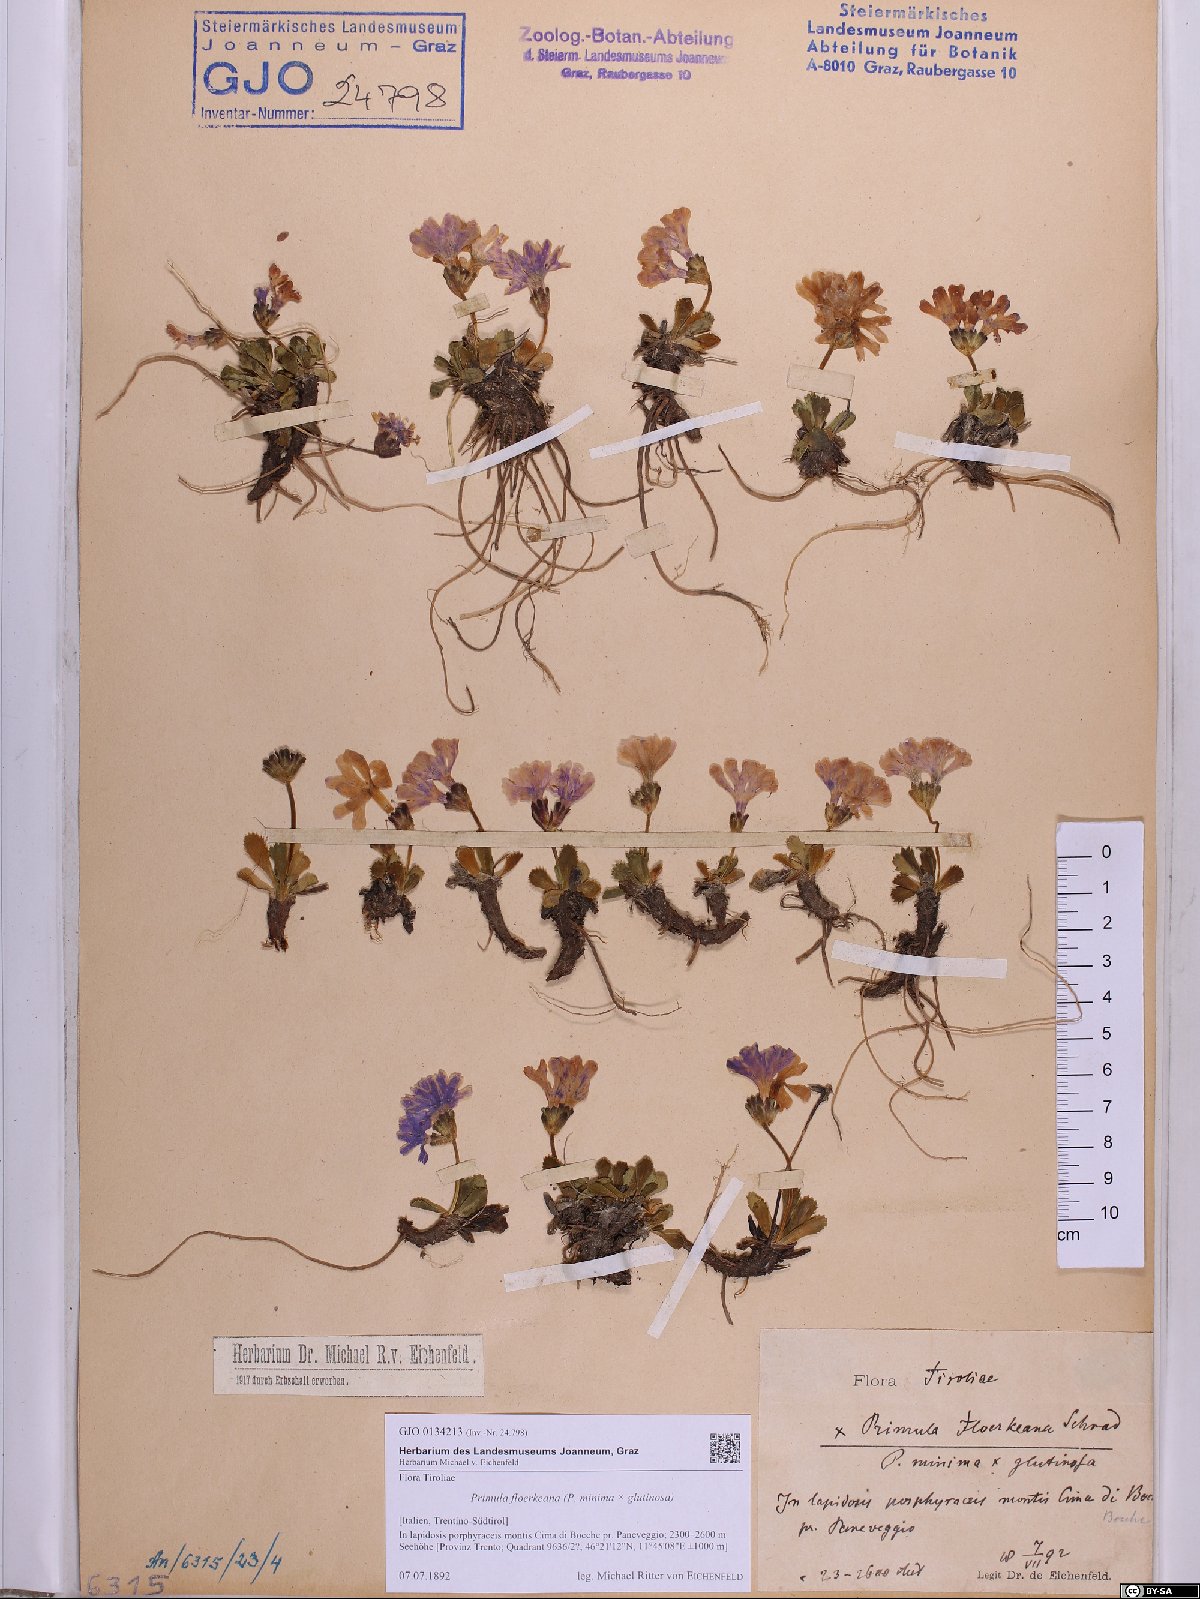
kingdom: Plantae
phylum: Tracheophyta
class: Magnoliopsida
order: Ericales
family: Primulaceae
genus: Primula
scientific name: Primula floerkeana
